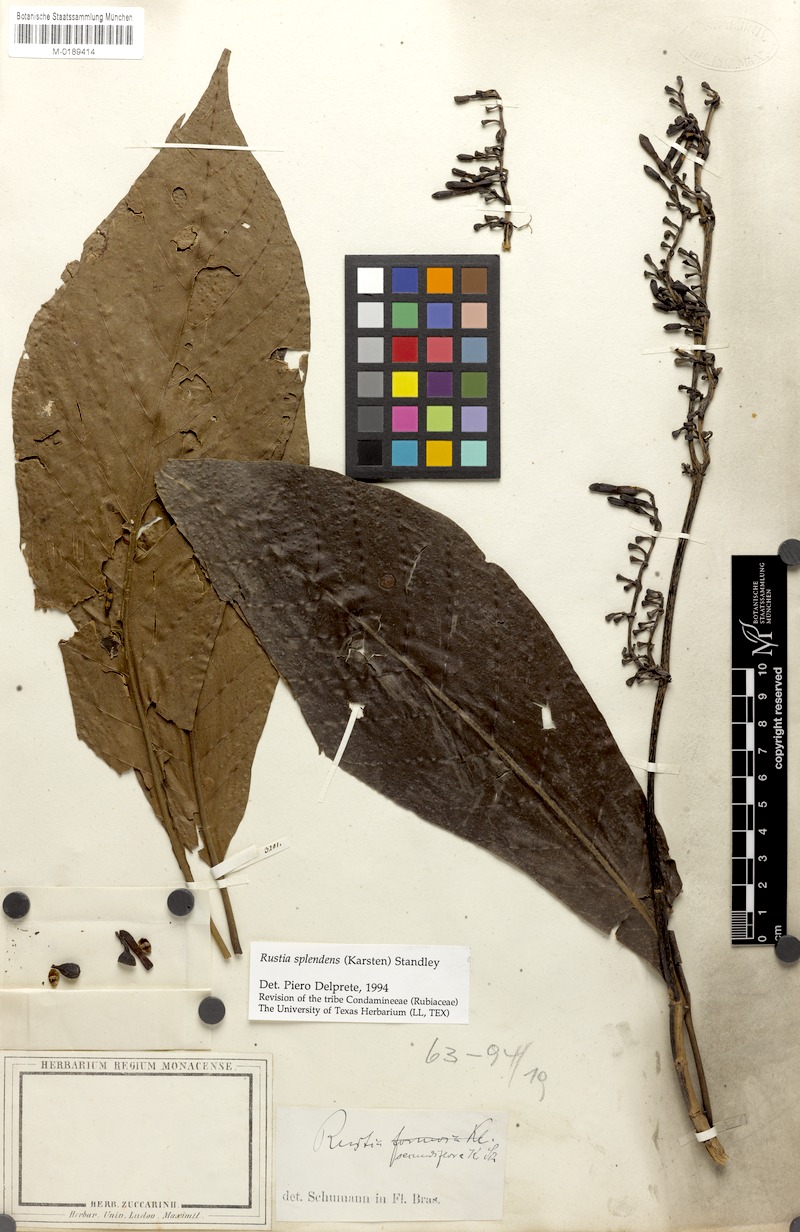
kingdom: Plantae
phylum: Tracheophyta
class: Magnoliopsida
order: Gentianales
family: Rubiaceae
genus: Rustia
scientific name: Rustia thibaudioides
